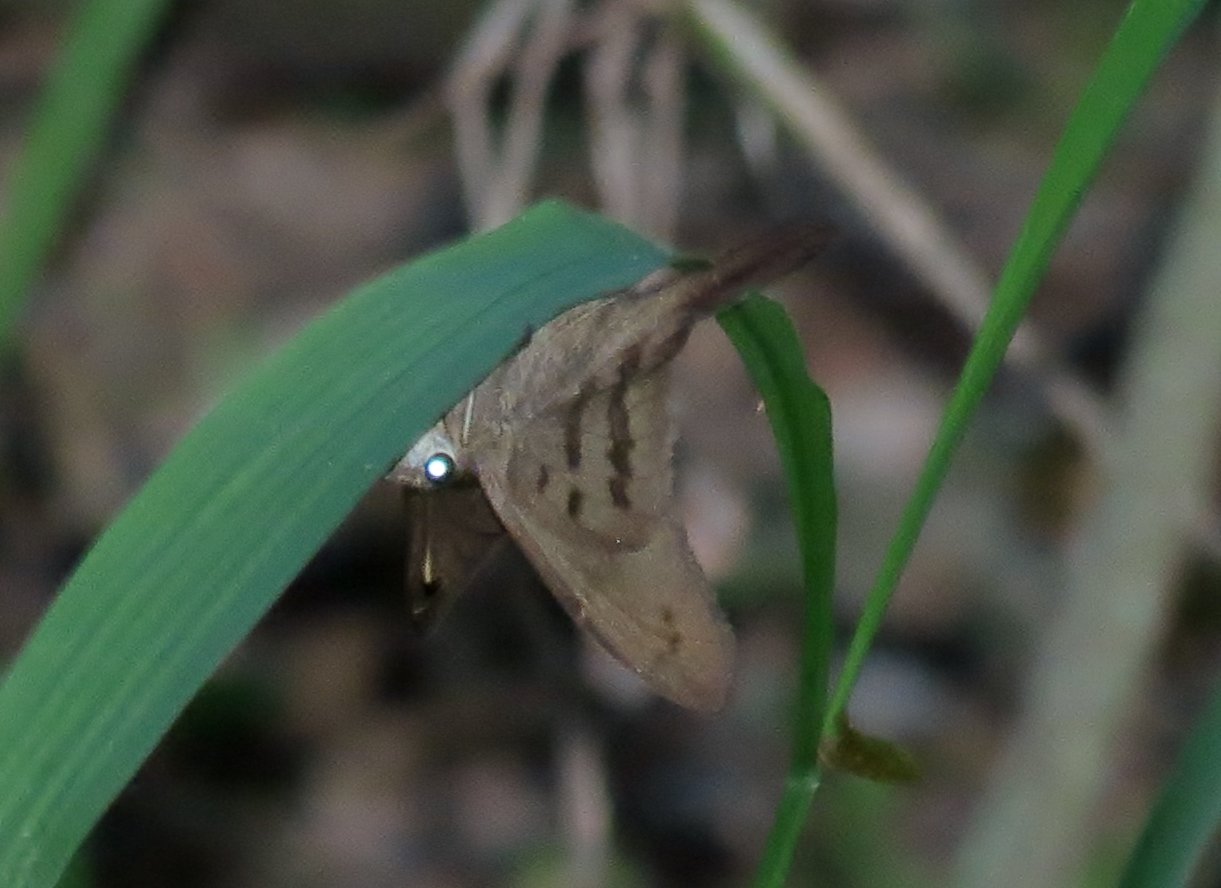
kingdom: Animalia
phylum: Arthropoda
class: Insecta
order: Lepidoptera
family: Hesperiidae
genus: Urbanus
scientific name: Urbanus procne
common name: Brown Longtail
